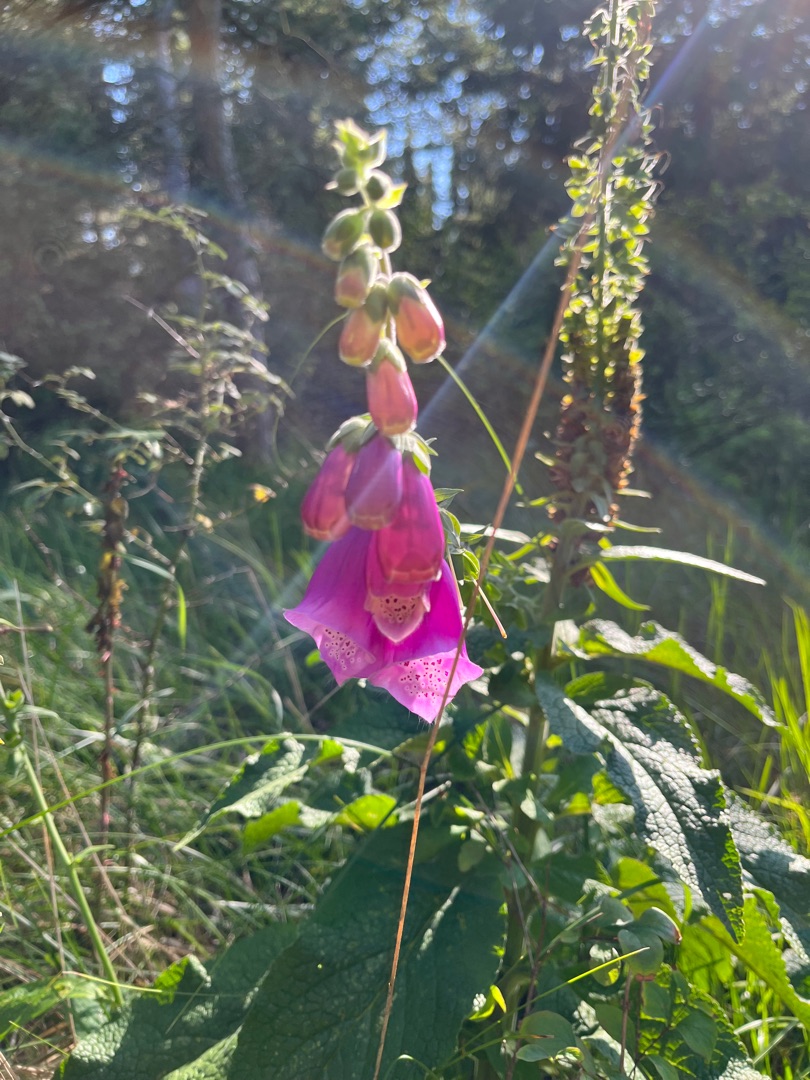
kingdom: Plantae
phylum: Tracheophyta
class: Magnoliopsida
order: Lamiales
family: Plantaginaceae
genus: Digitalis
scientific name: Digitalis purpurea
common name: Almindelig fingerbøl
